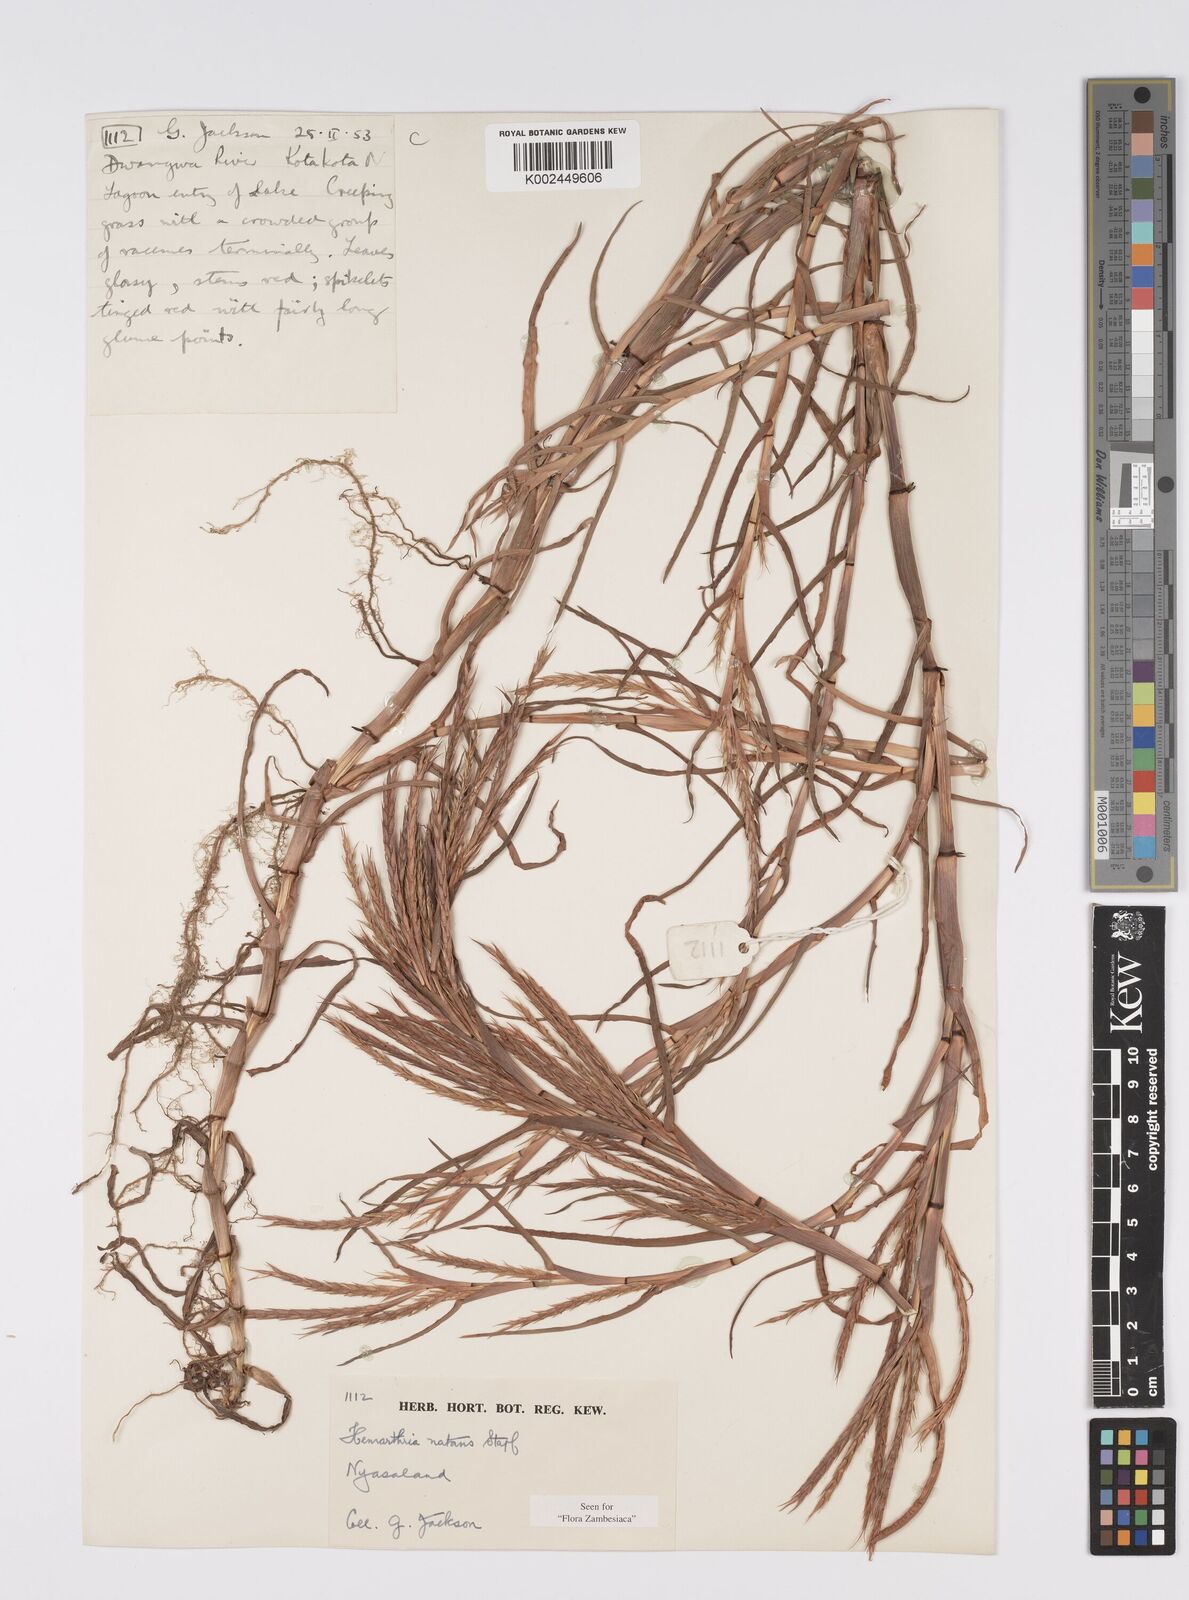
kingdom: Plantae
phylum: Tracheophyta
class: Liliopsida
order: Poales
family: Poaceae
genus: Hemarthria
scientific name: Hemarthria natans
